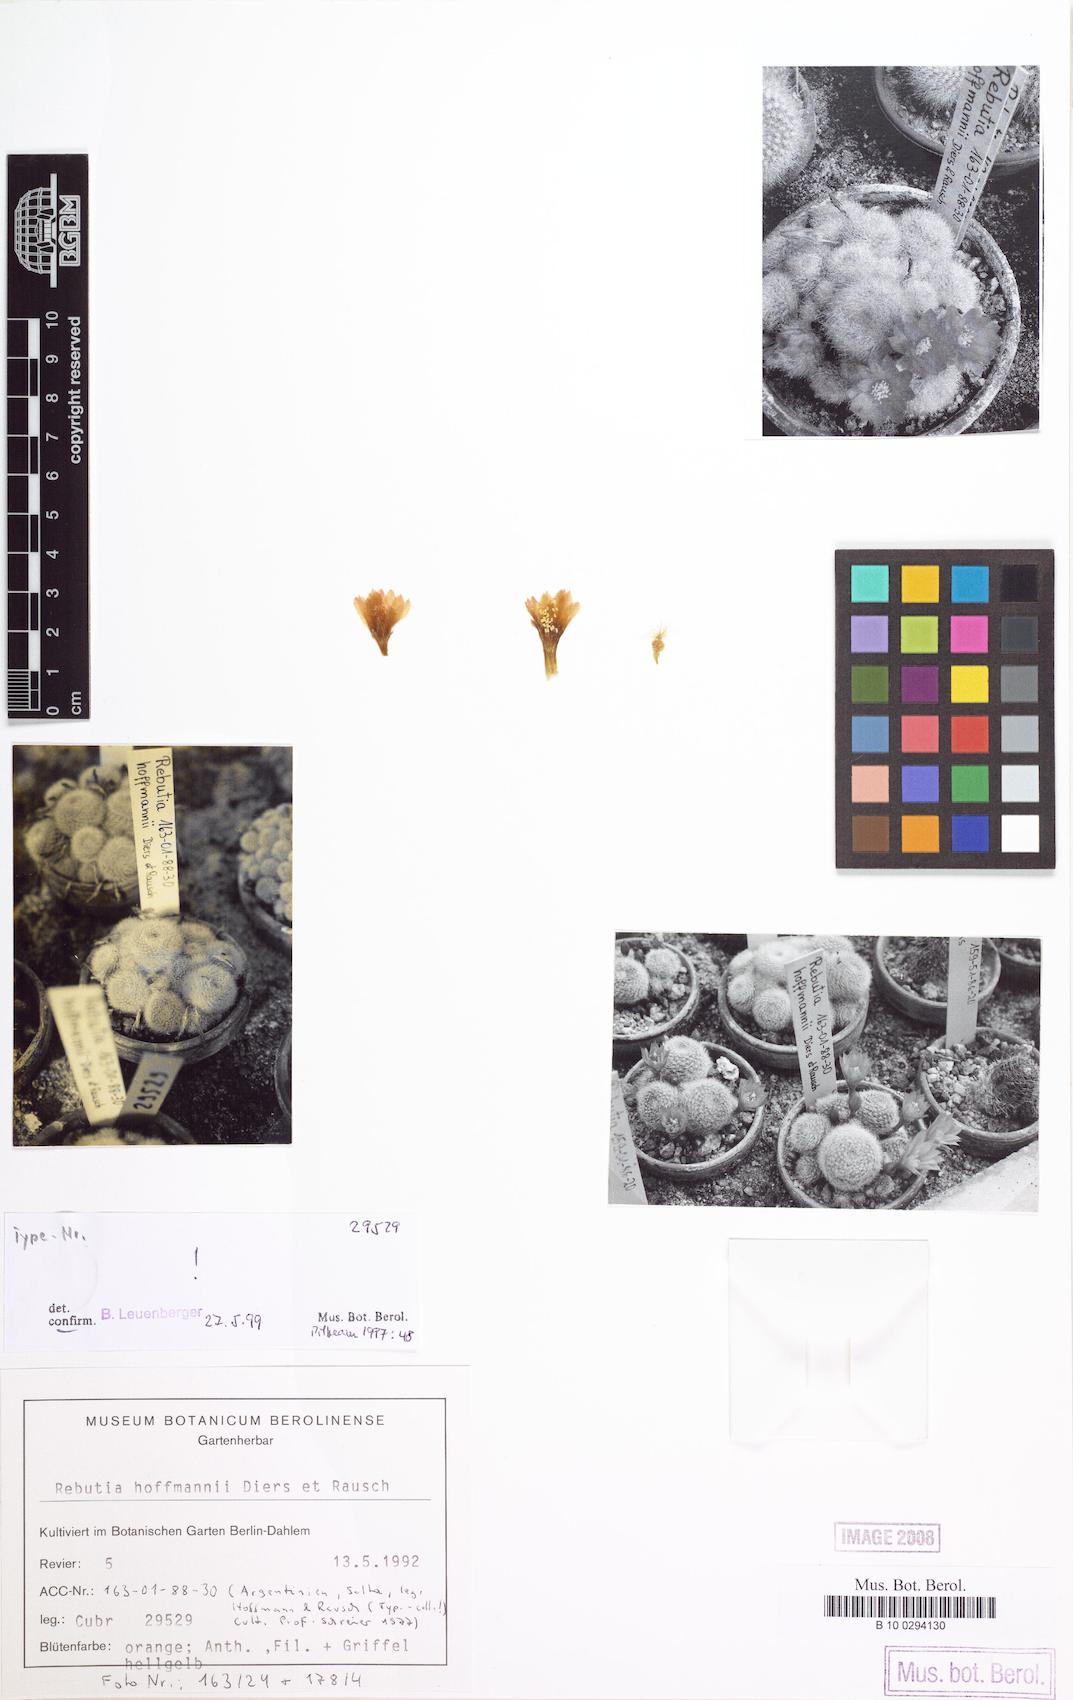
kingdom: Plantae
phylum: Tracheophyta
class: Magnoliopsida
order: Caryophyllales
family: Cactaceae
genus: Aylostera
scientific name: Aylostera deminuta
